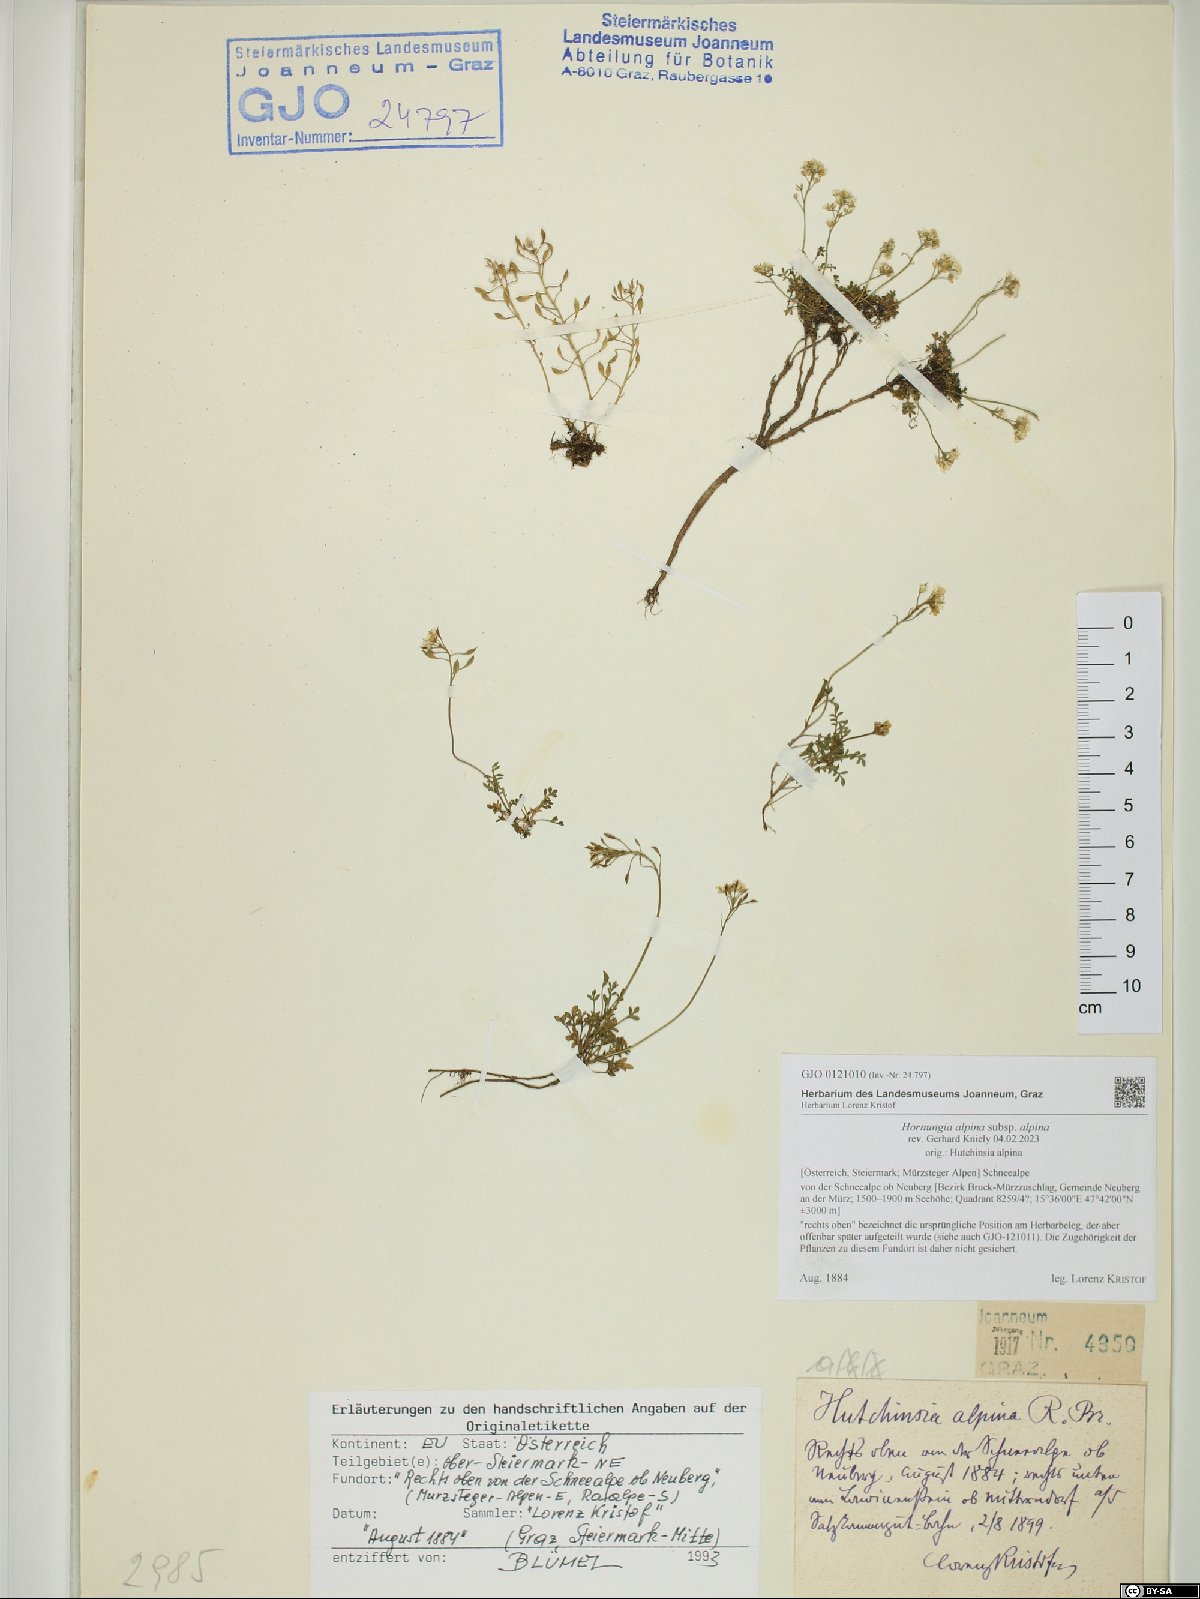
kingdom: Plantae
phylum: Tracheophyta
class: Magnoliopsida
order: Brassicales
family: Brassicaceae
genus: Hornungia
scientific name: Hornungia alpina
